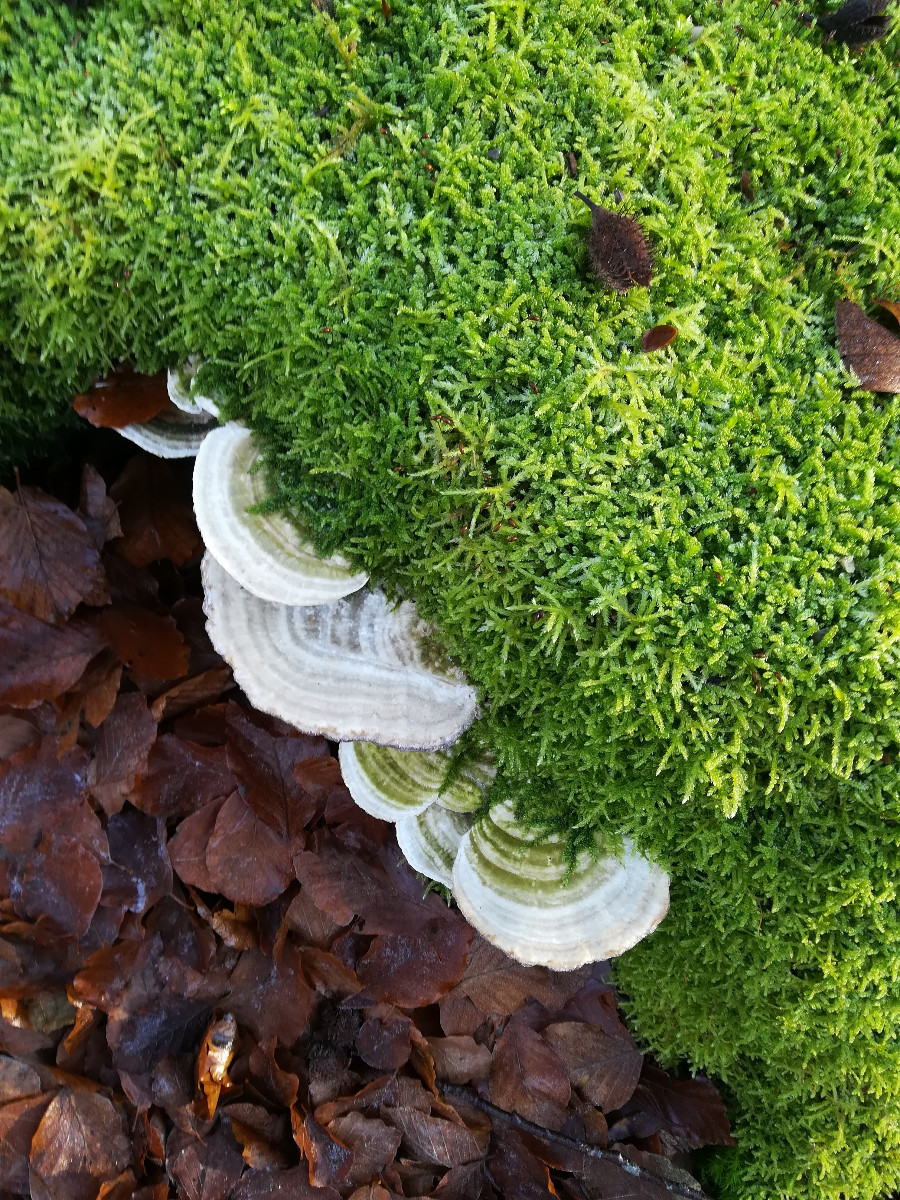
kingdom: Fungi
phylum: Basidiomycota
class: Agaricomycetes
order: Polyporales
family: Polyporaceae
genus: Trametes
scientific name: Trametes gibbosa
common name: puklet læderporesvamp
